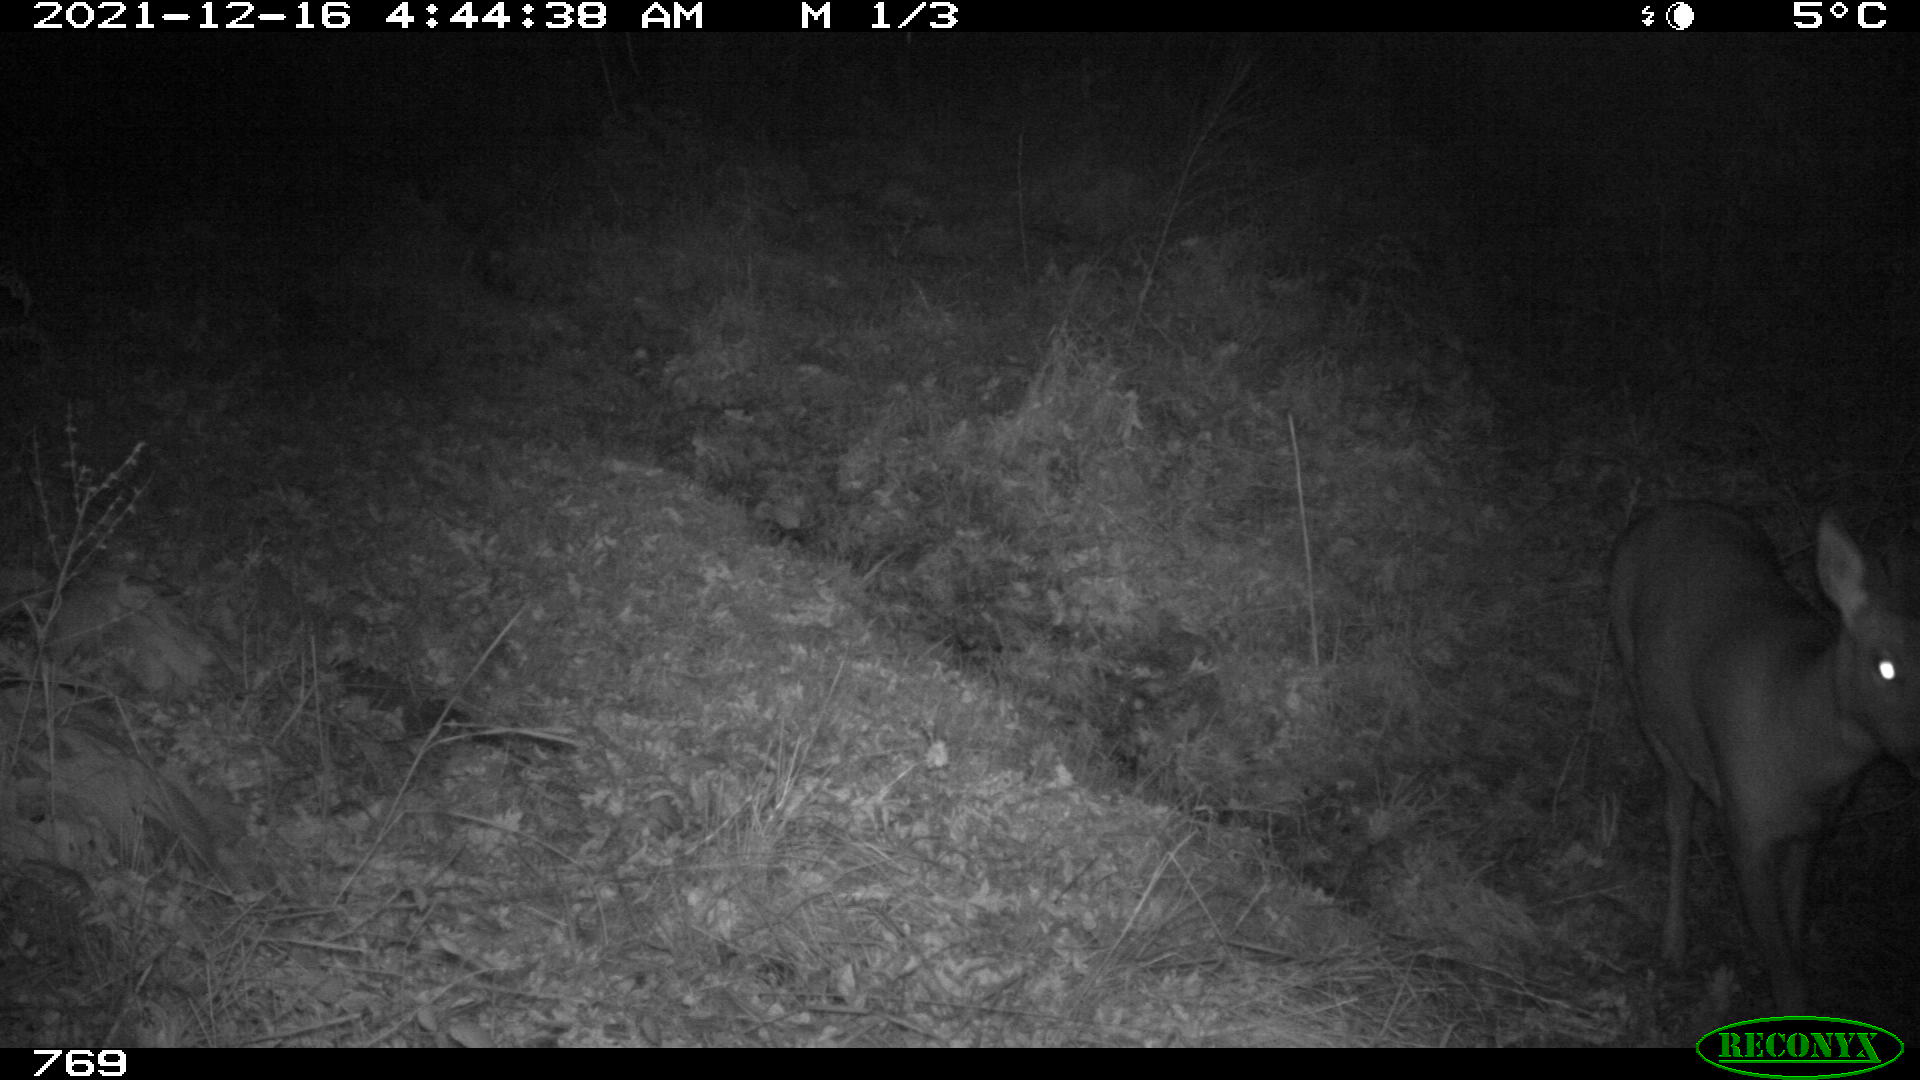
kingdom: Animalia
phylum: Chordata
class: Mammalia
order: Artiodactyla
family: Cervidae
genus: Capreolus
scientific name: Capreolus capreolus
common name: Western roe deer
